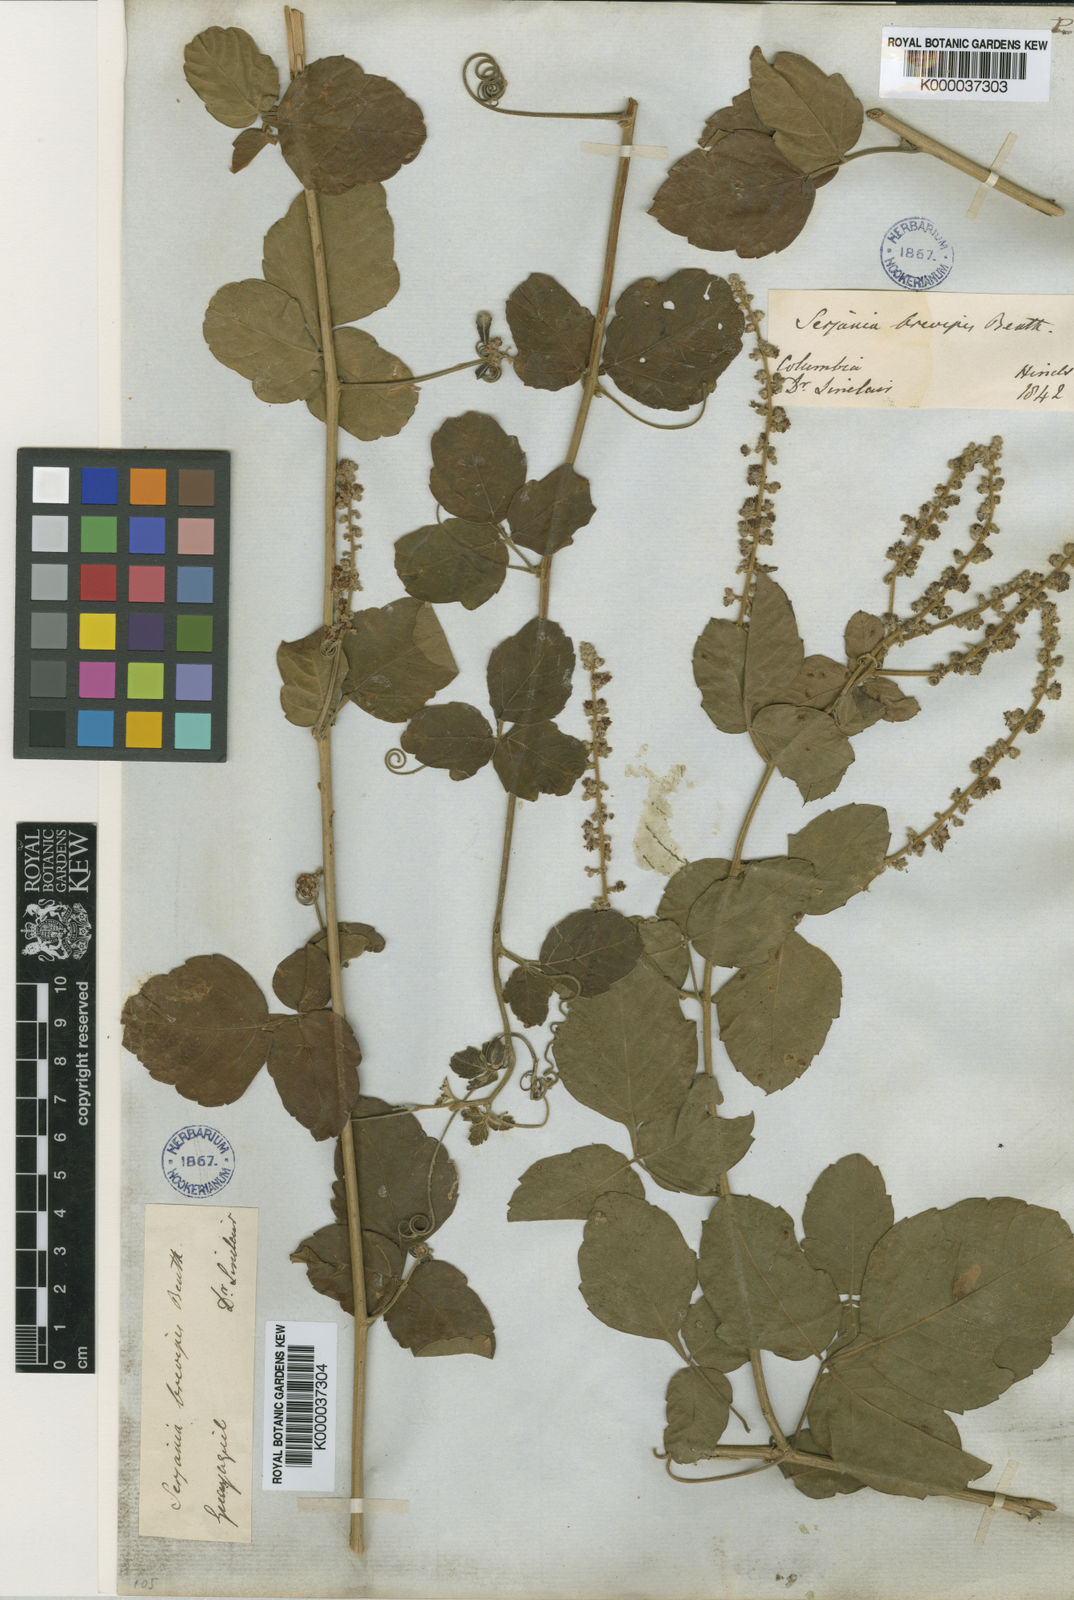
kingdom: Plantae
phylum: Tracheophyta
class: Magnoliopsida
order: Sapindales
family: Sapindaceae
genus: Serjania
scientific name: Serjania brevipes
